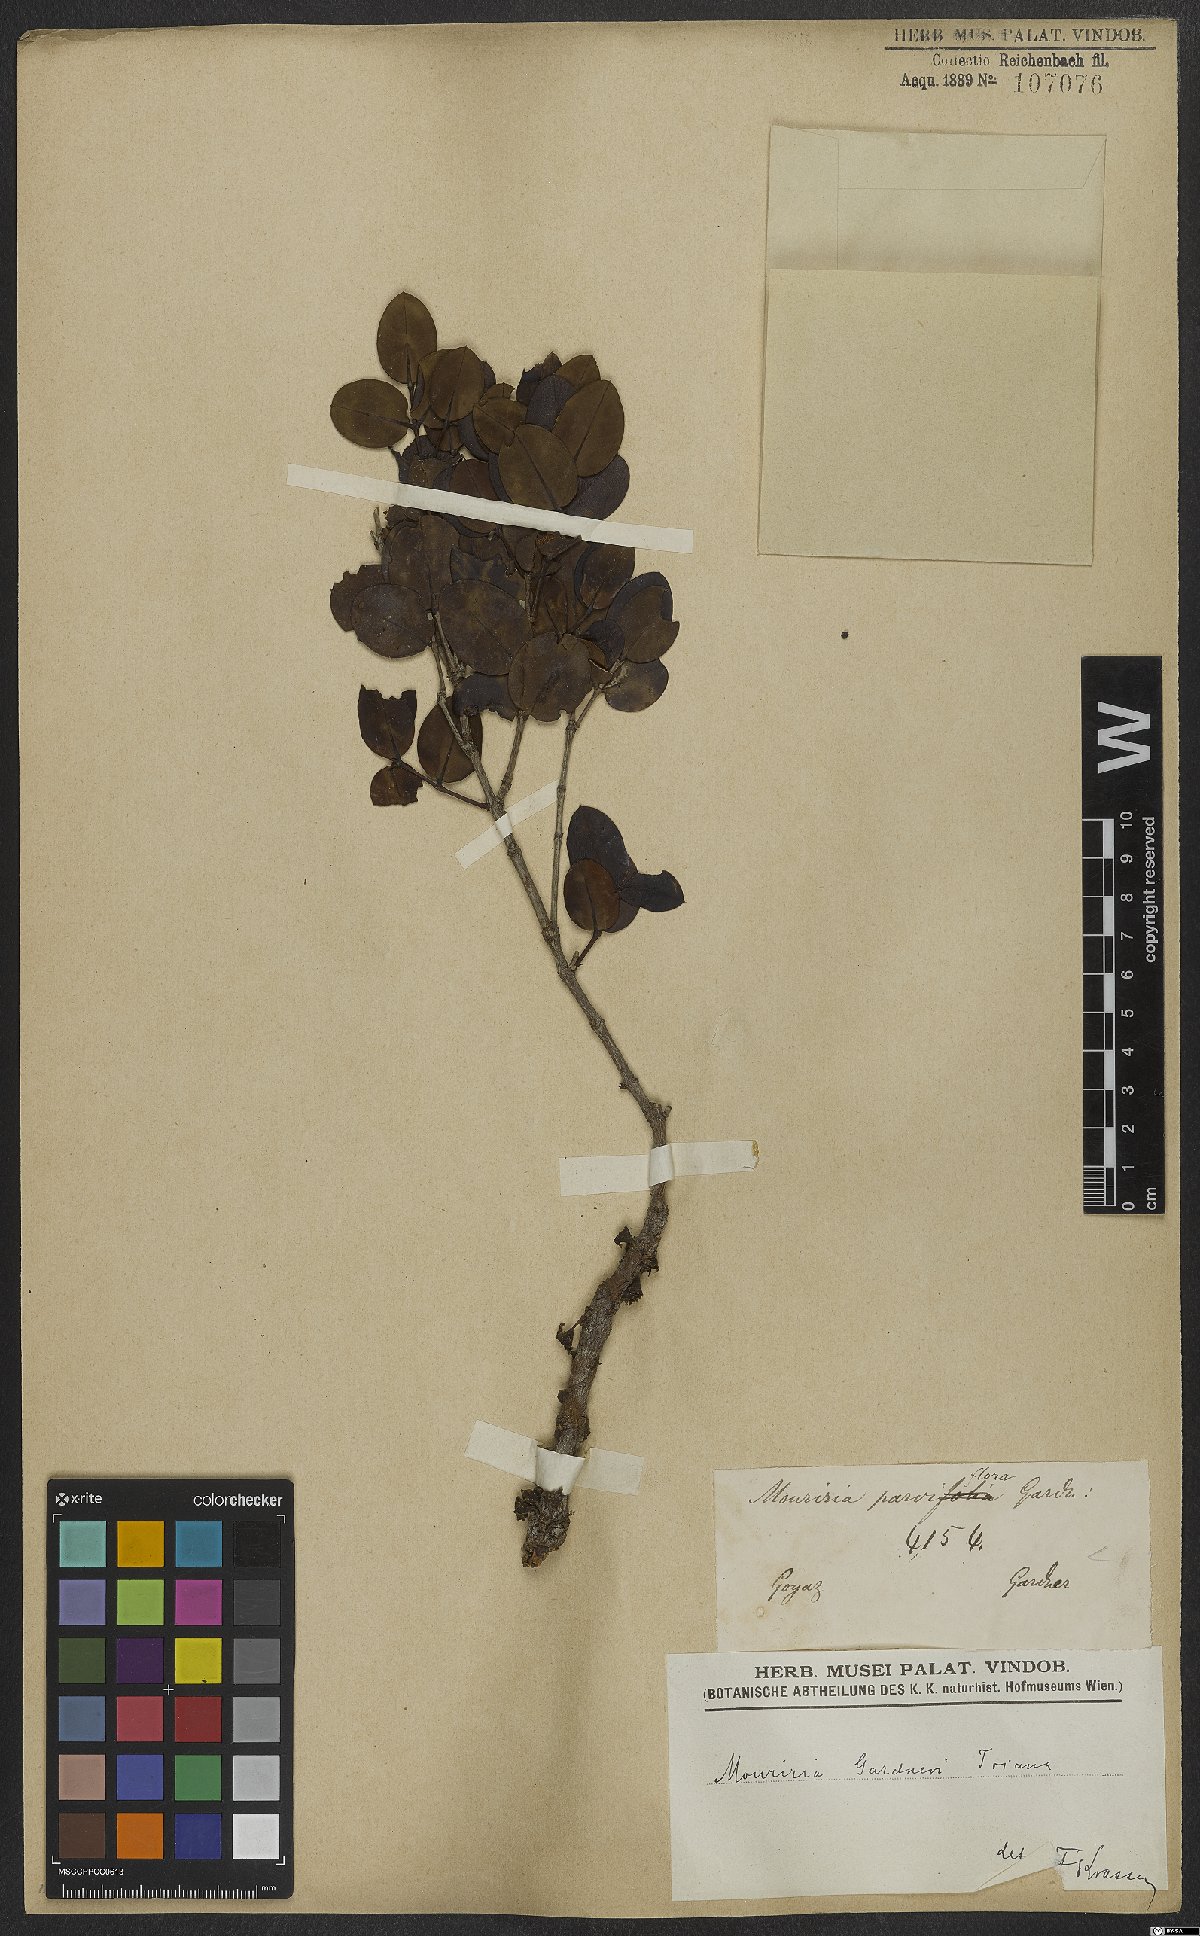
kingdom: Plantae
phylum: Tracheophyta
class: Magnoliopsida
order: Myrtales
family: Melastomataceae
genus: Mouriri
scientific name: Mouriri gardneri
